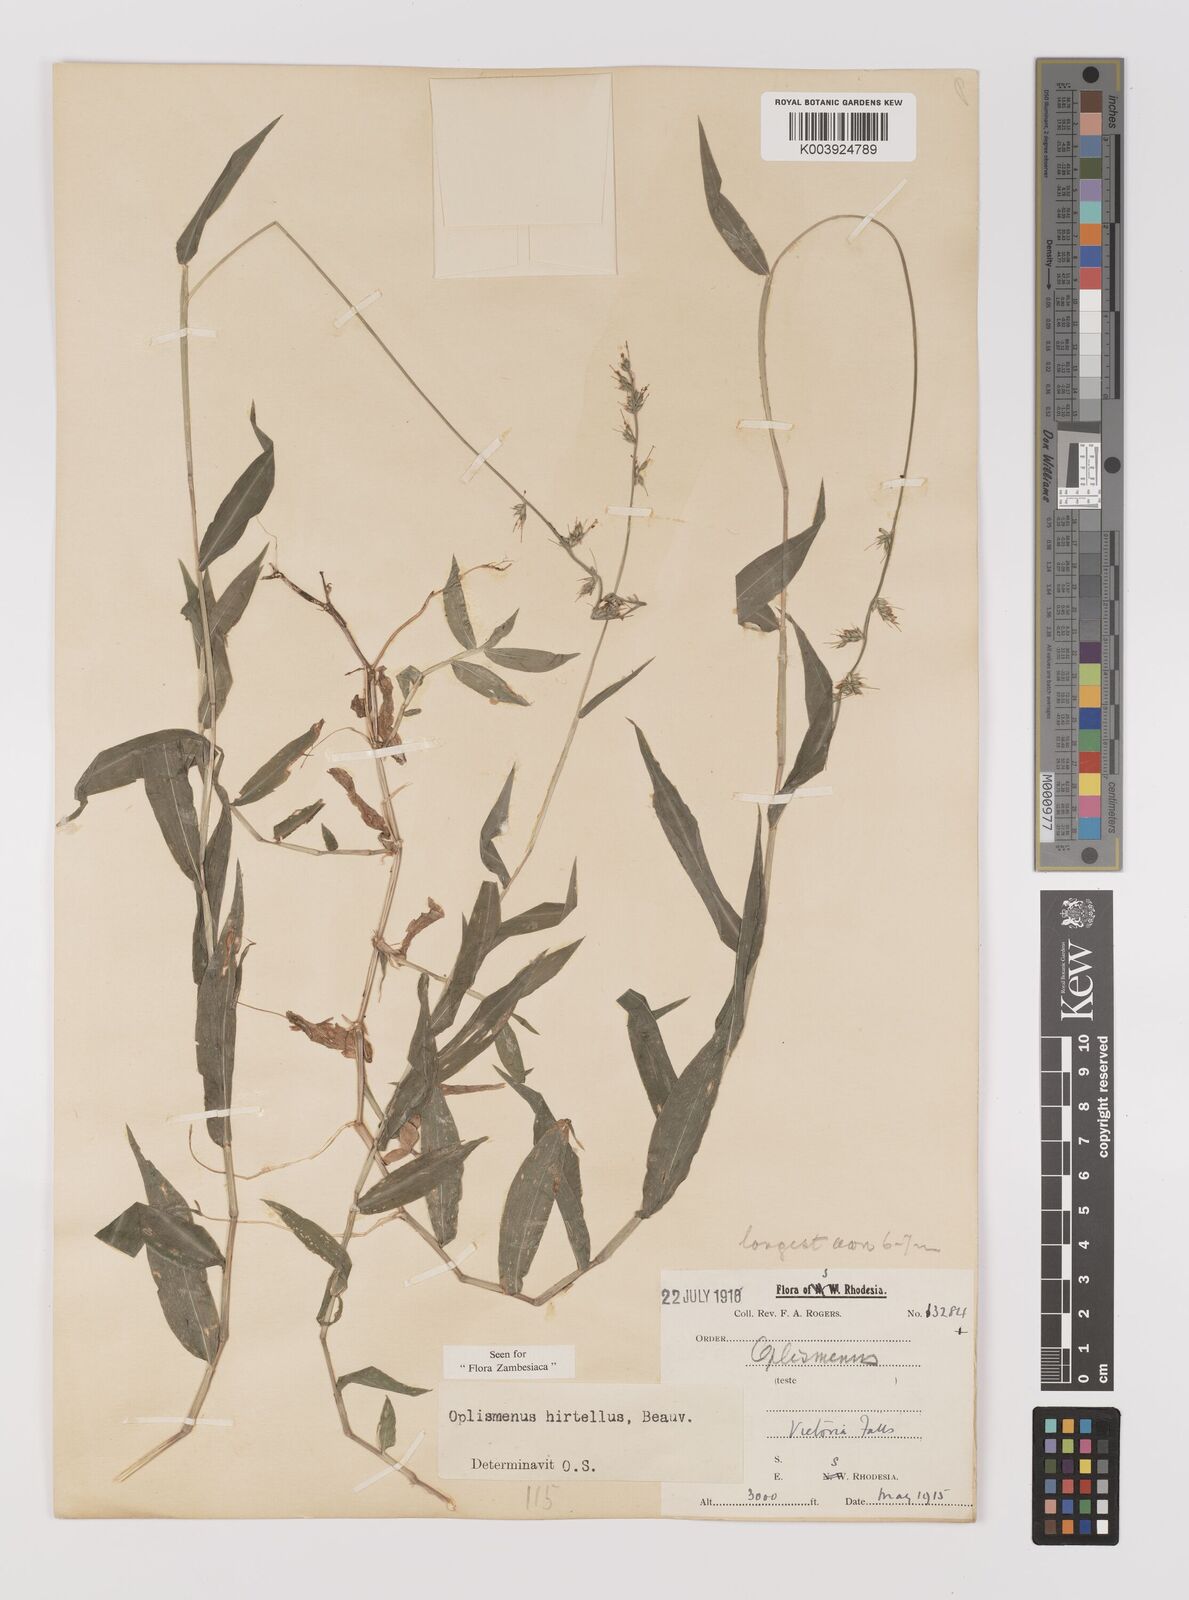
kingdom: Plantae
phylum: Tracheophyta
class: Liliopsida
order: Poales
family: Poaceae
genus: Oplismenus
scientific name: Oplismenus hirtellus
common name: Basketgrass
